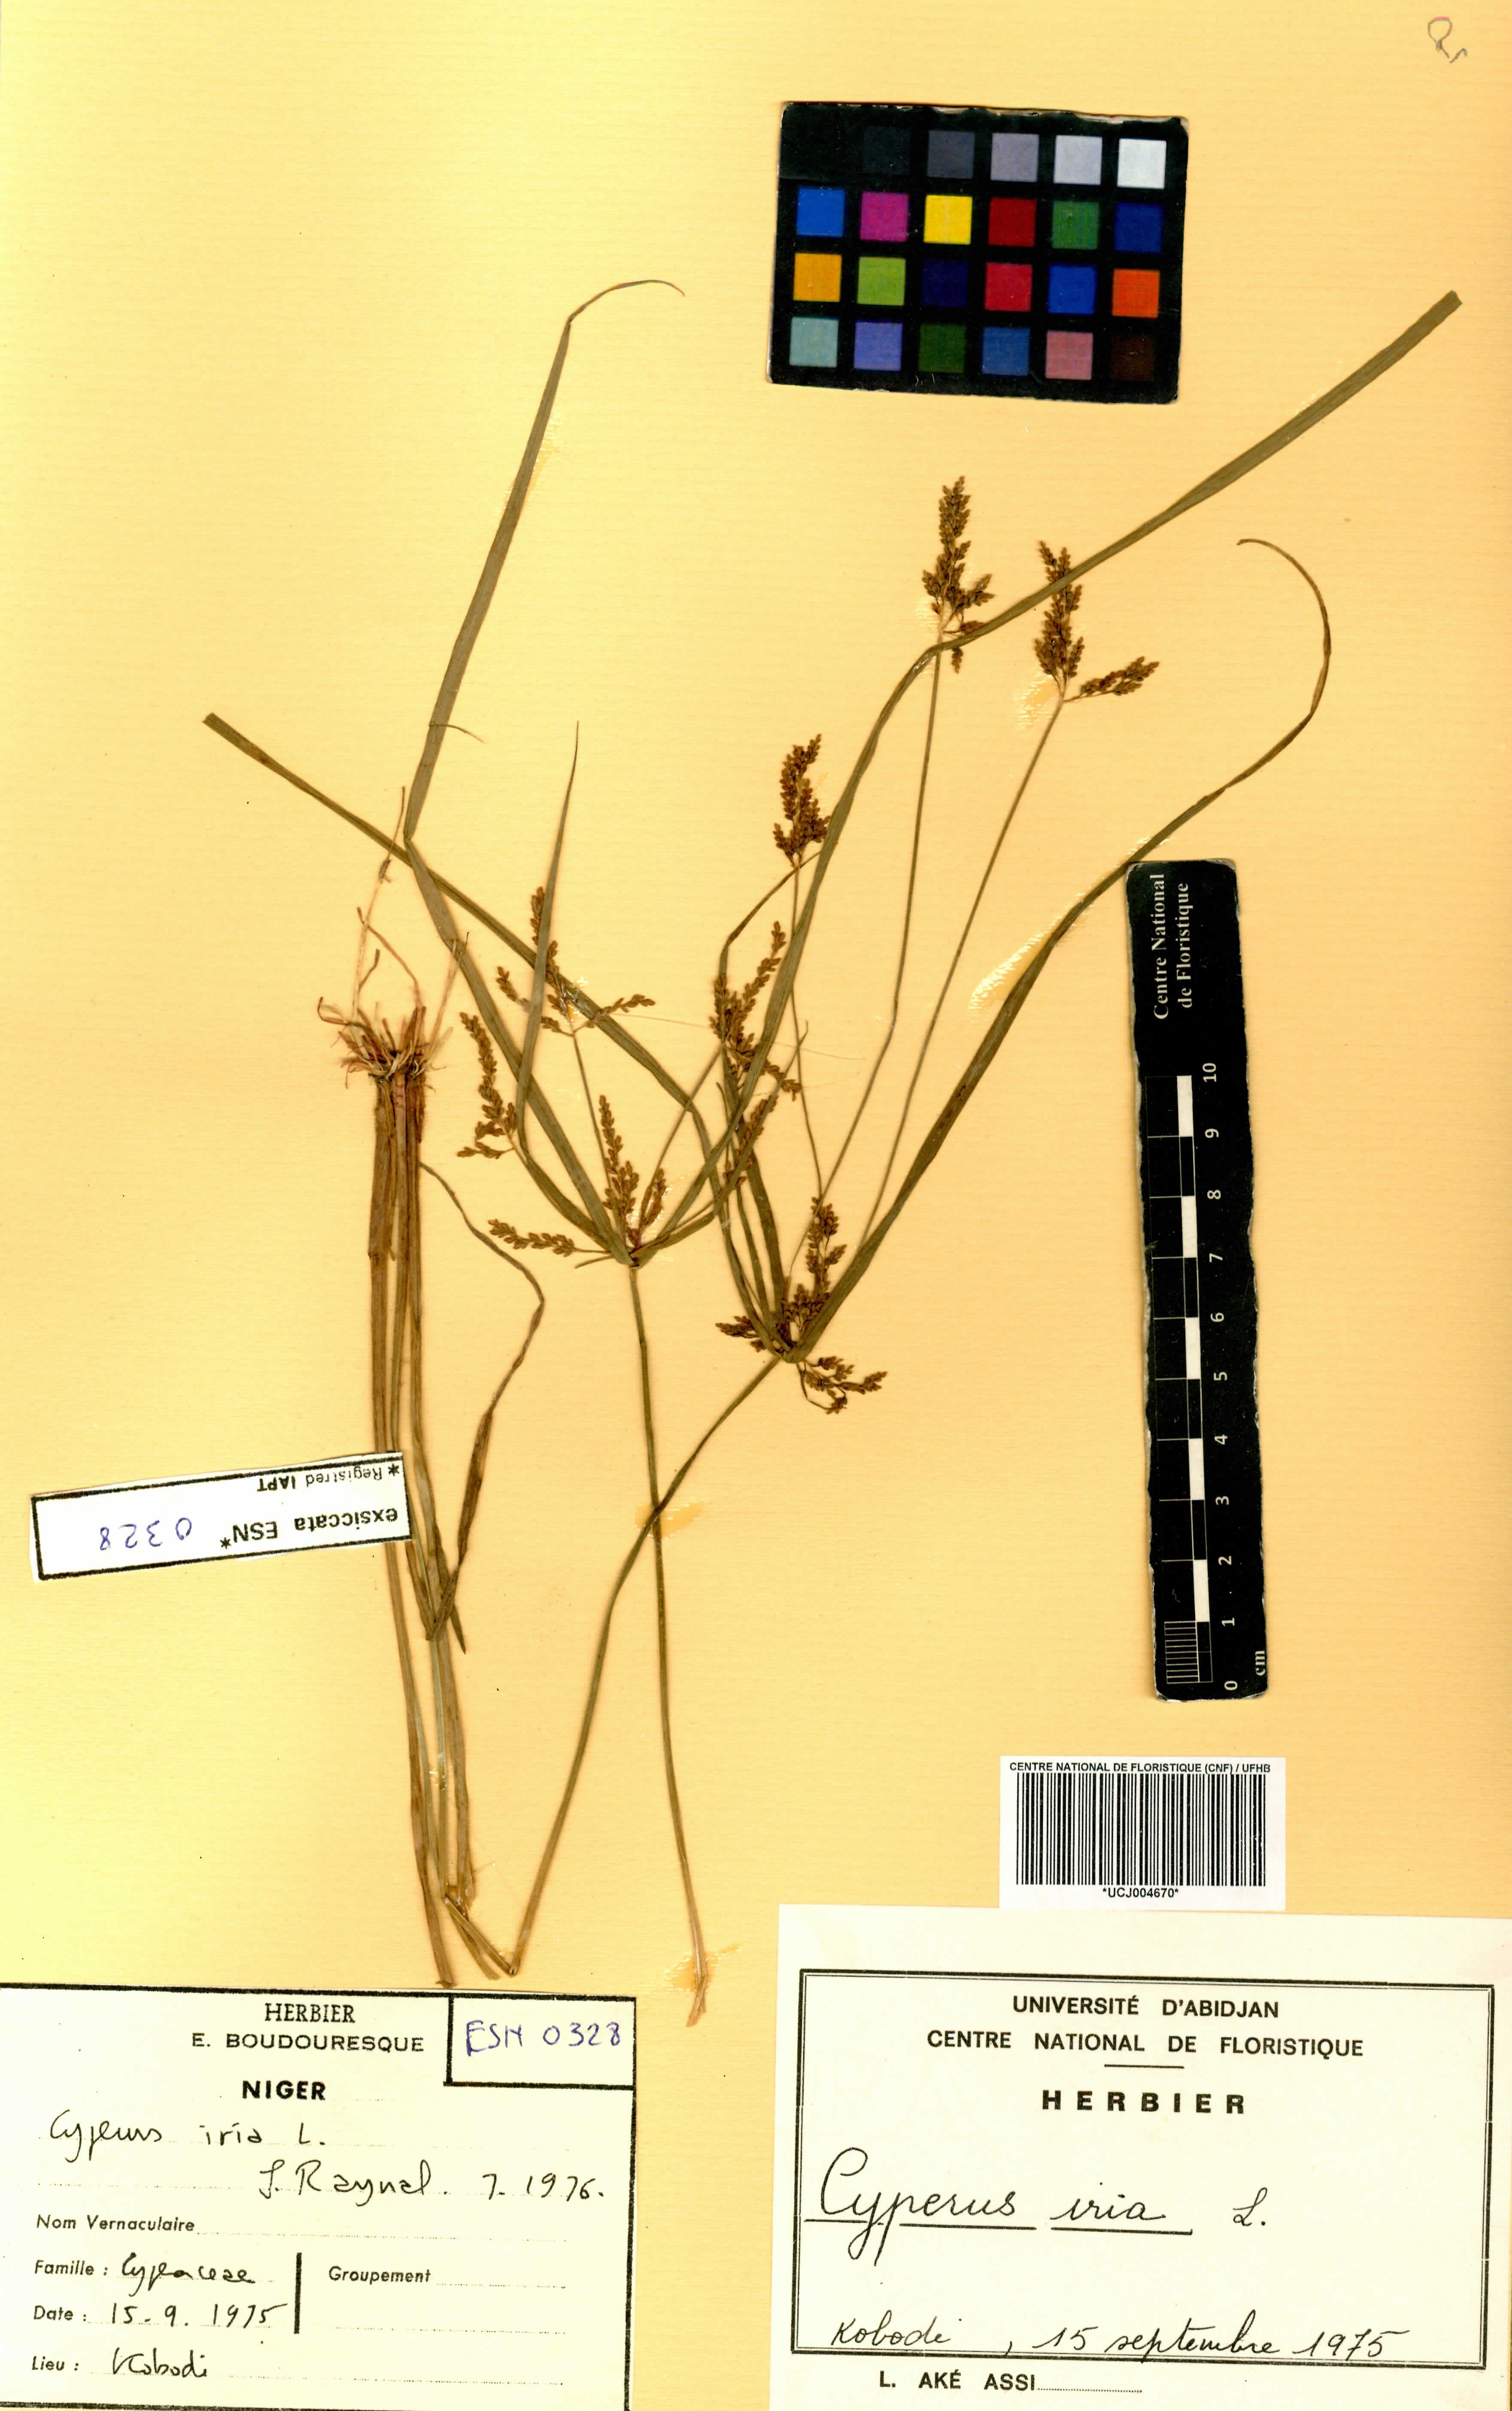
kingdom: Plantae
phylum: Tracheophyta
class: Liliopsida
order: Poales
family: Cyperaceae
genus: Cyperus
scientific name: Cyperus iria
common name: Ricefield flatsedge
